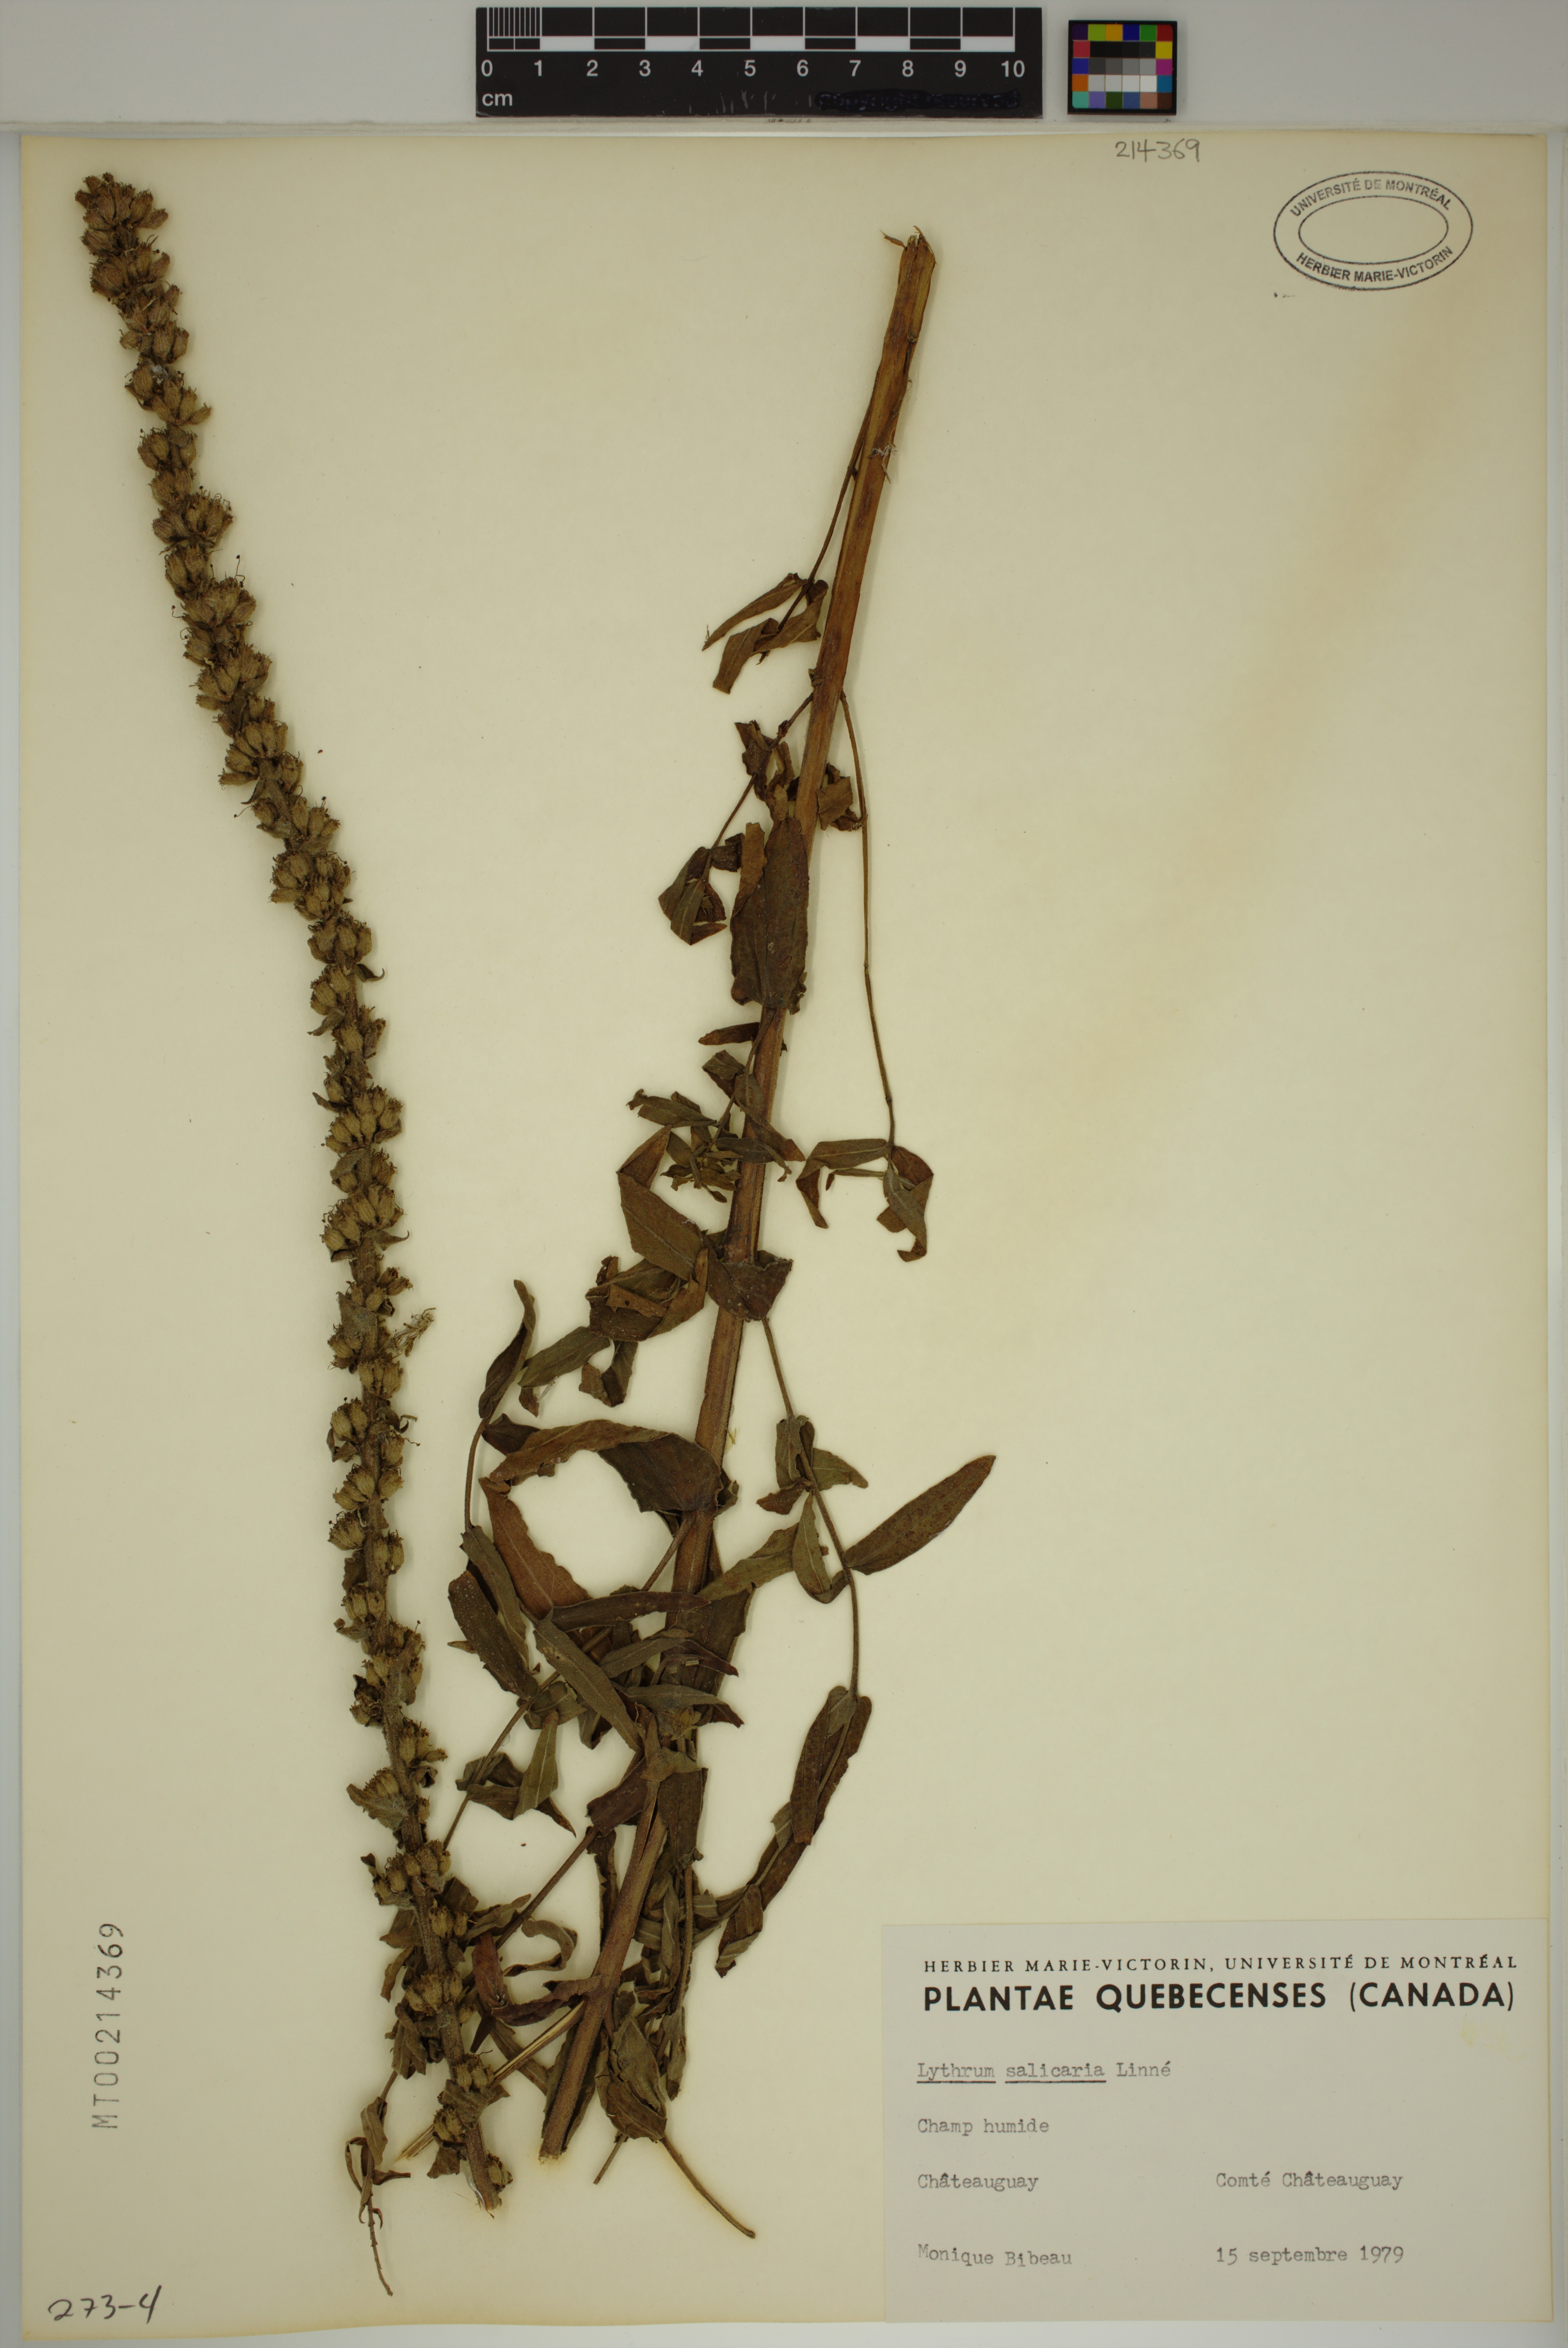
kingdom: Plantae
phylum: Tracheophyta
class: Magnoliopsida
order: Myrtales
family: Lythraceae
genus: Lythrum
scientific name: Lythrum salicaria
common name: Purple loosestrife
